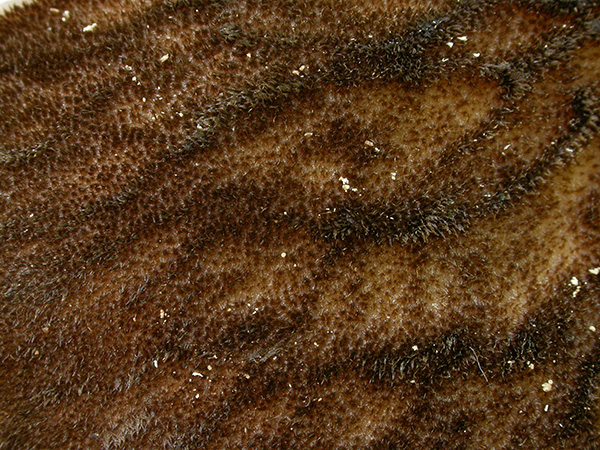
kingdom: Fungi
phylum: Basidiomycota
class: Agaricomycetes
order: Agaricales
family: Pluteaceae
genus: Pluteus
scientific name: Pluteus umbrosus
